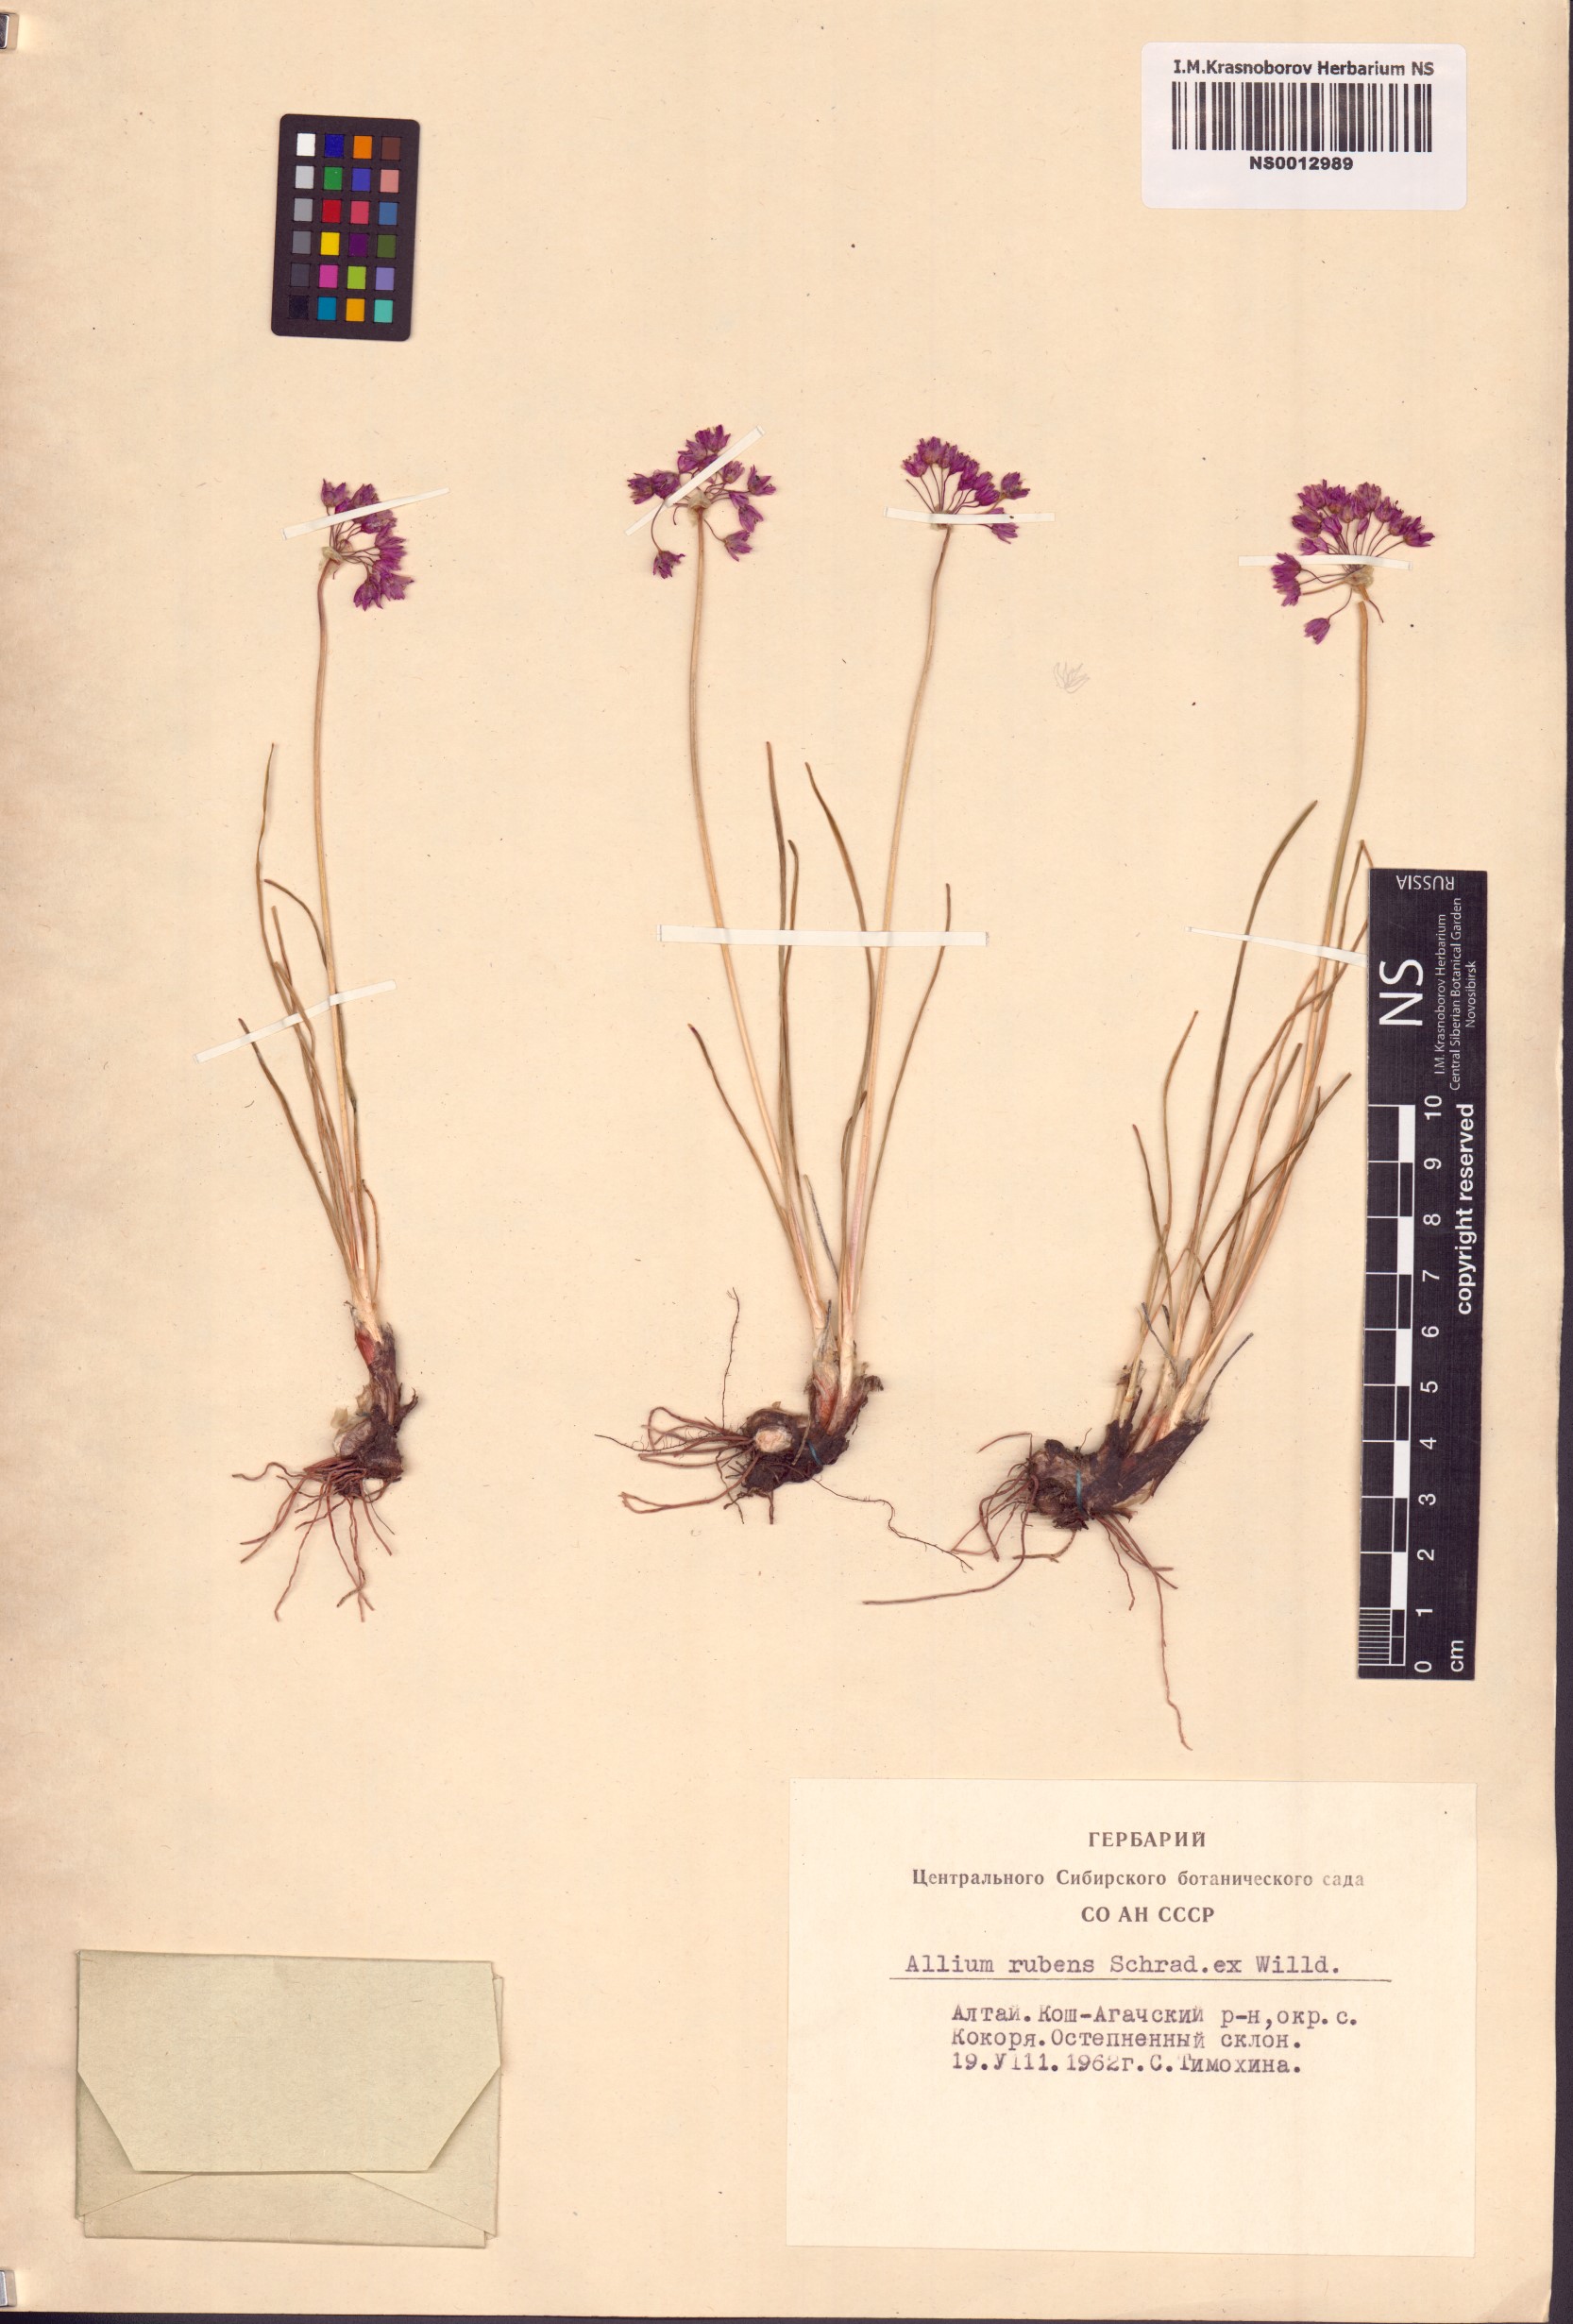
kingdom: Plantae
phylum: Tracheophyta
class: Liliopsida
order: Asparagales
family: Amaryllidaceae
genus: Allium
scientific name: Allium rubens
